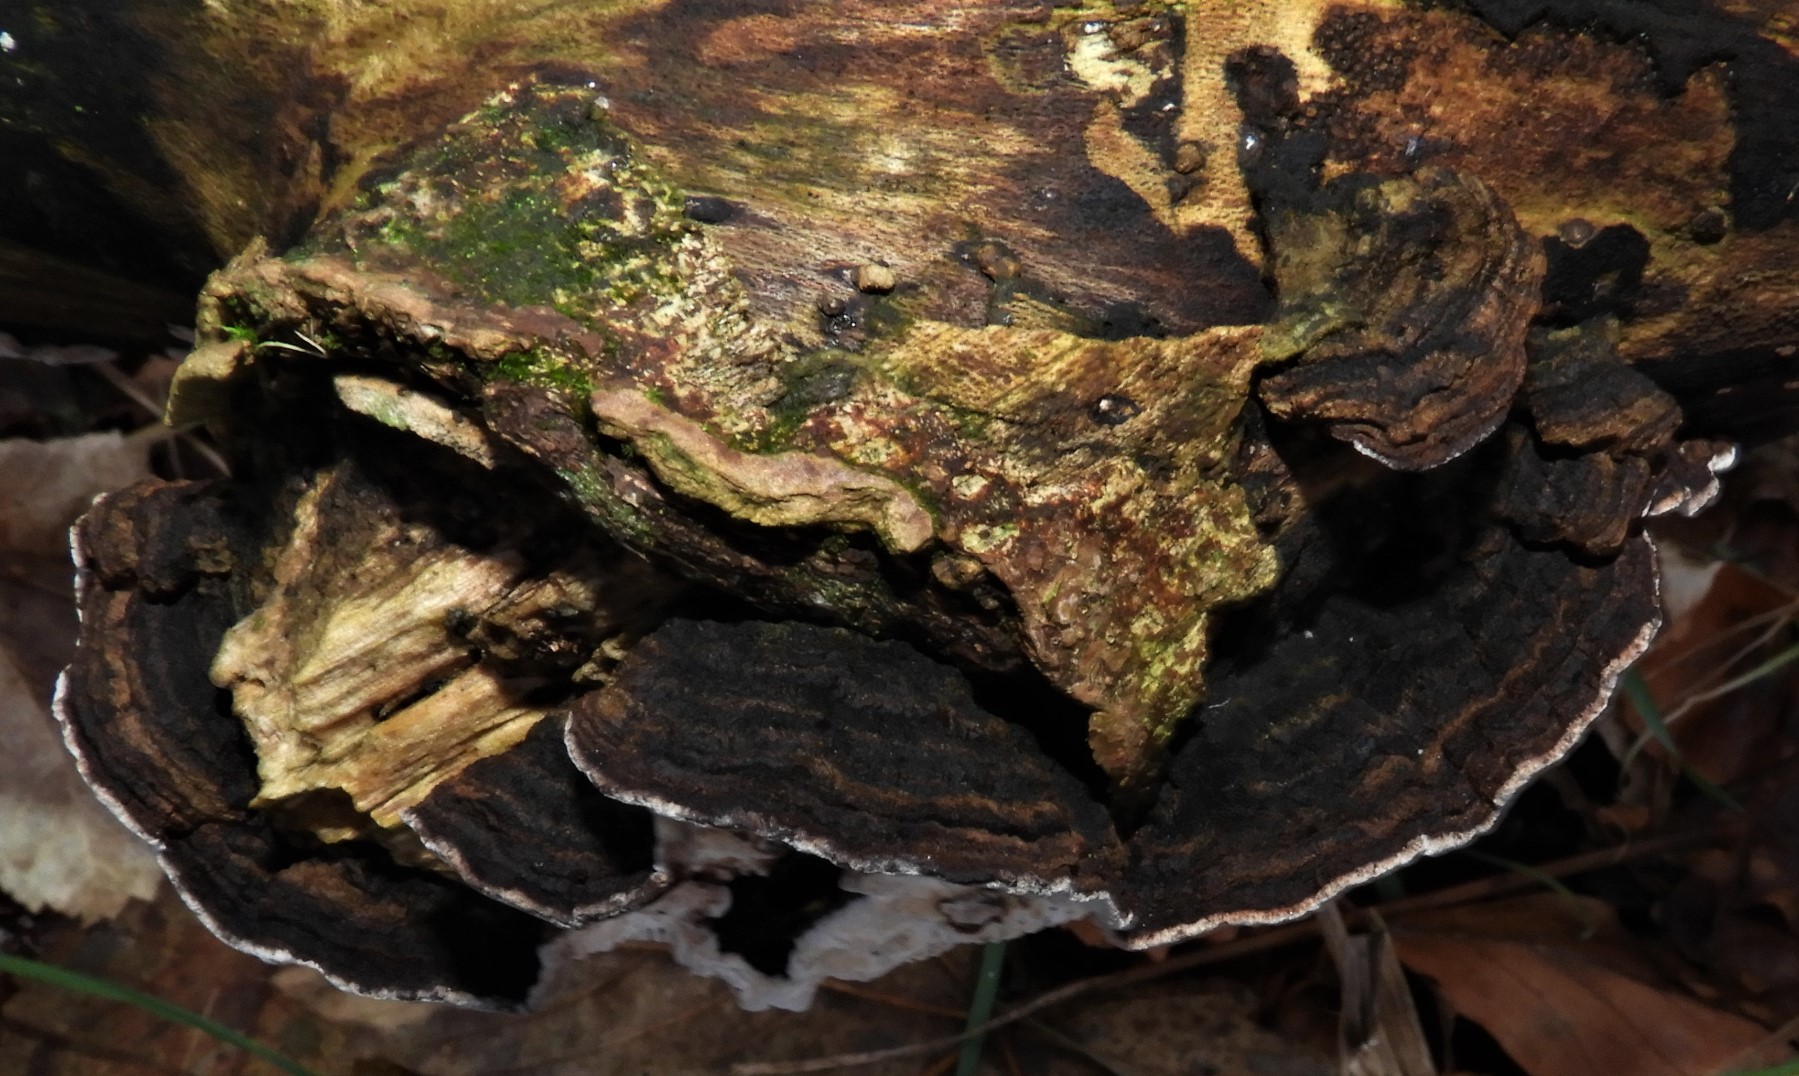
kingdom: Fungi
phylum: Basidiomycota
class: Agaricomycetes
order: Polyporales
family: Polyporaceae
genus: Podofomes
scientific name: Podofomes mollis
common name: blød begporesvamp
